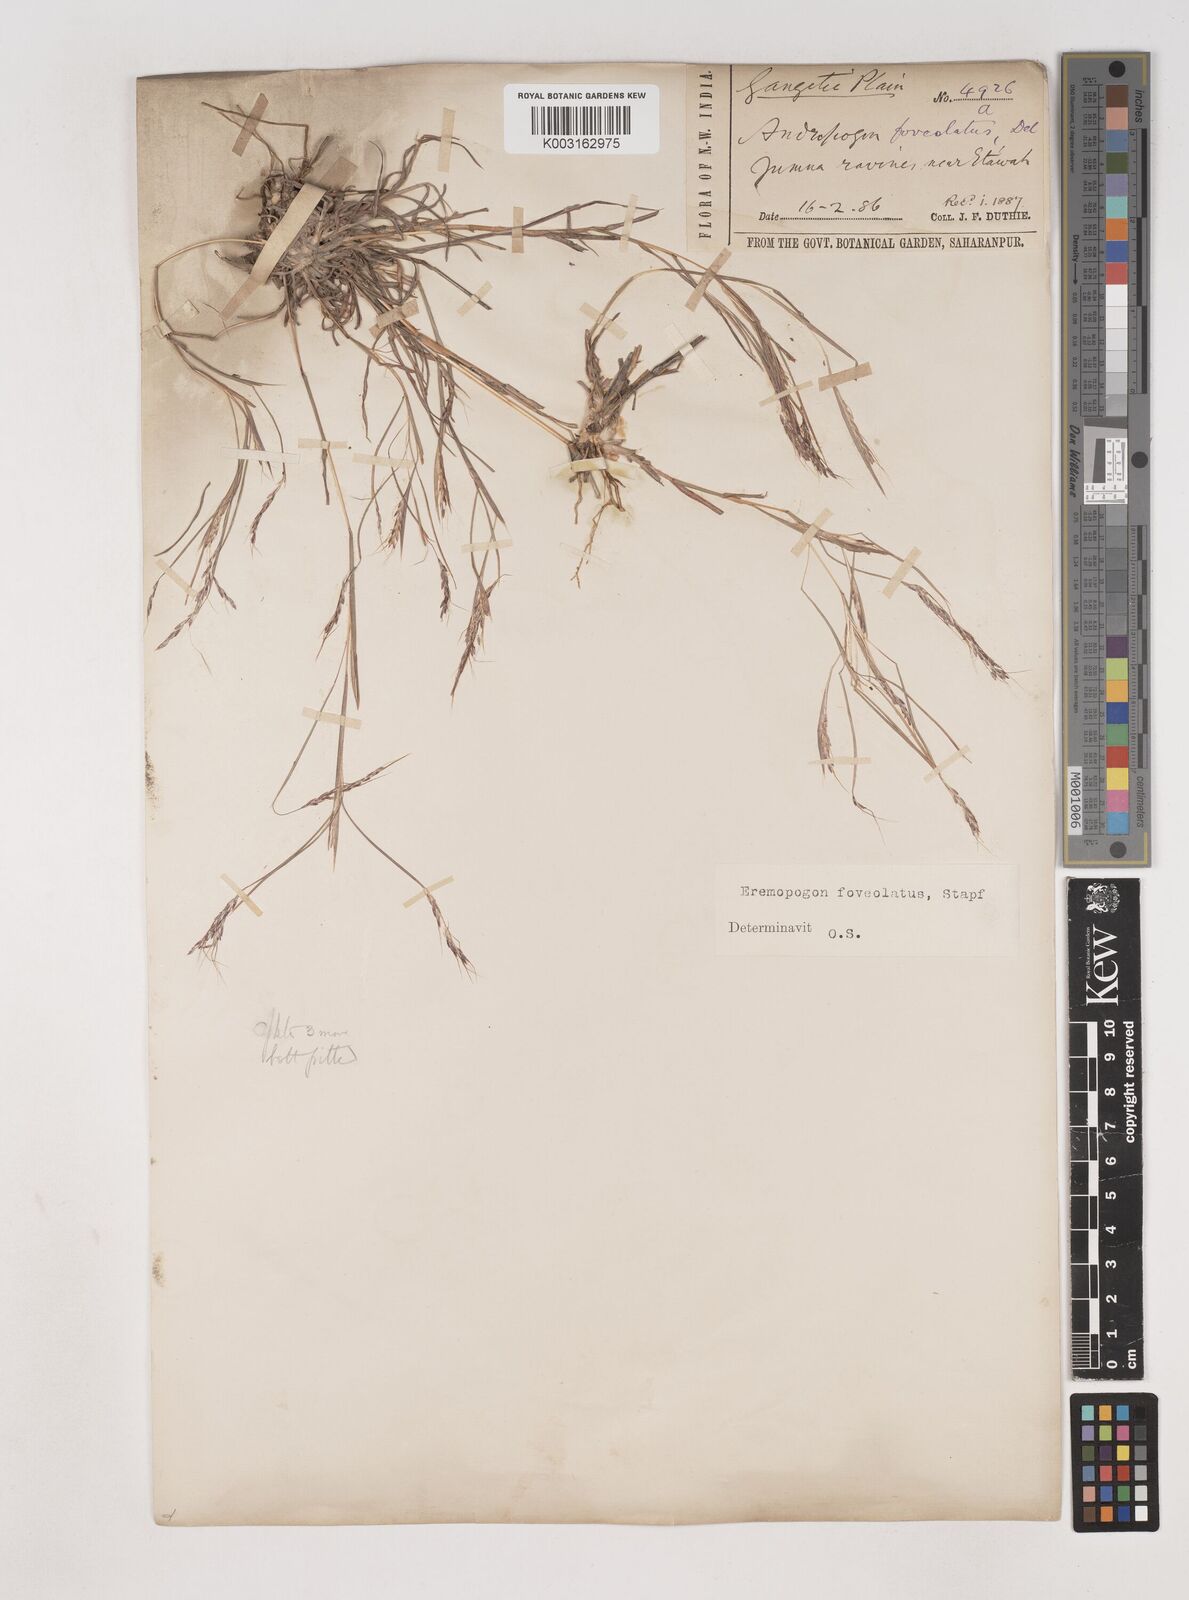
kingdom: Plantae
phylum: Tracheophyta
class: Liliopsida
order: Poales
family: Poaceae
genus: Dichanthium
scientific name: Dichanthium foveolatum
